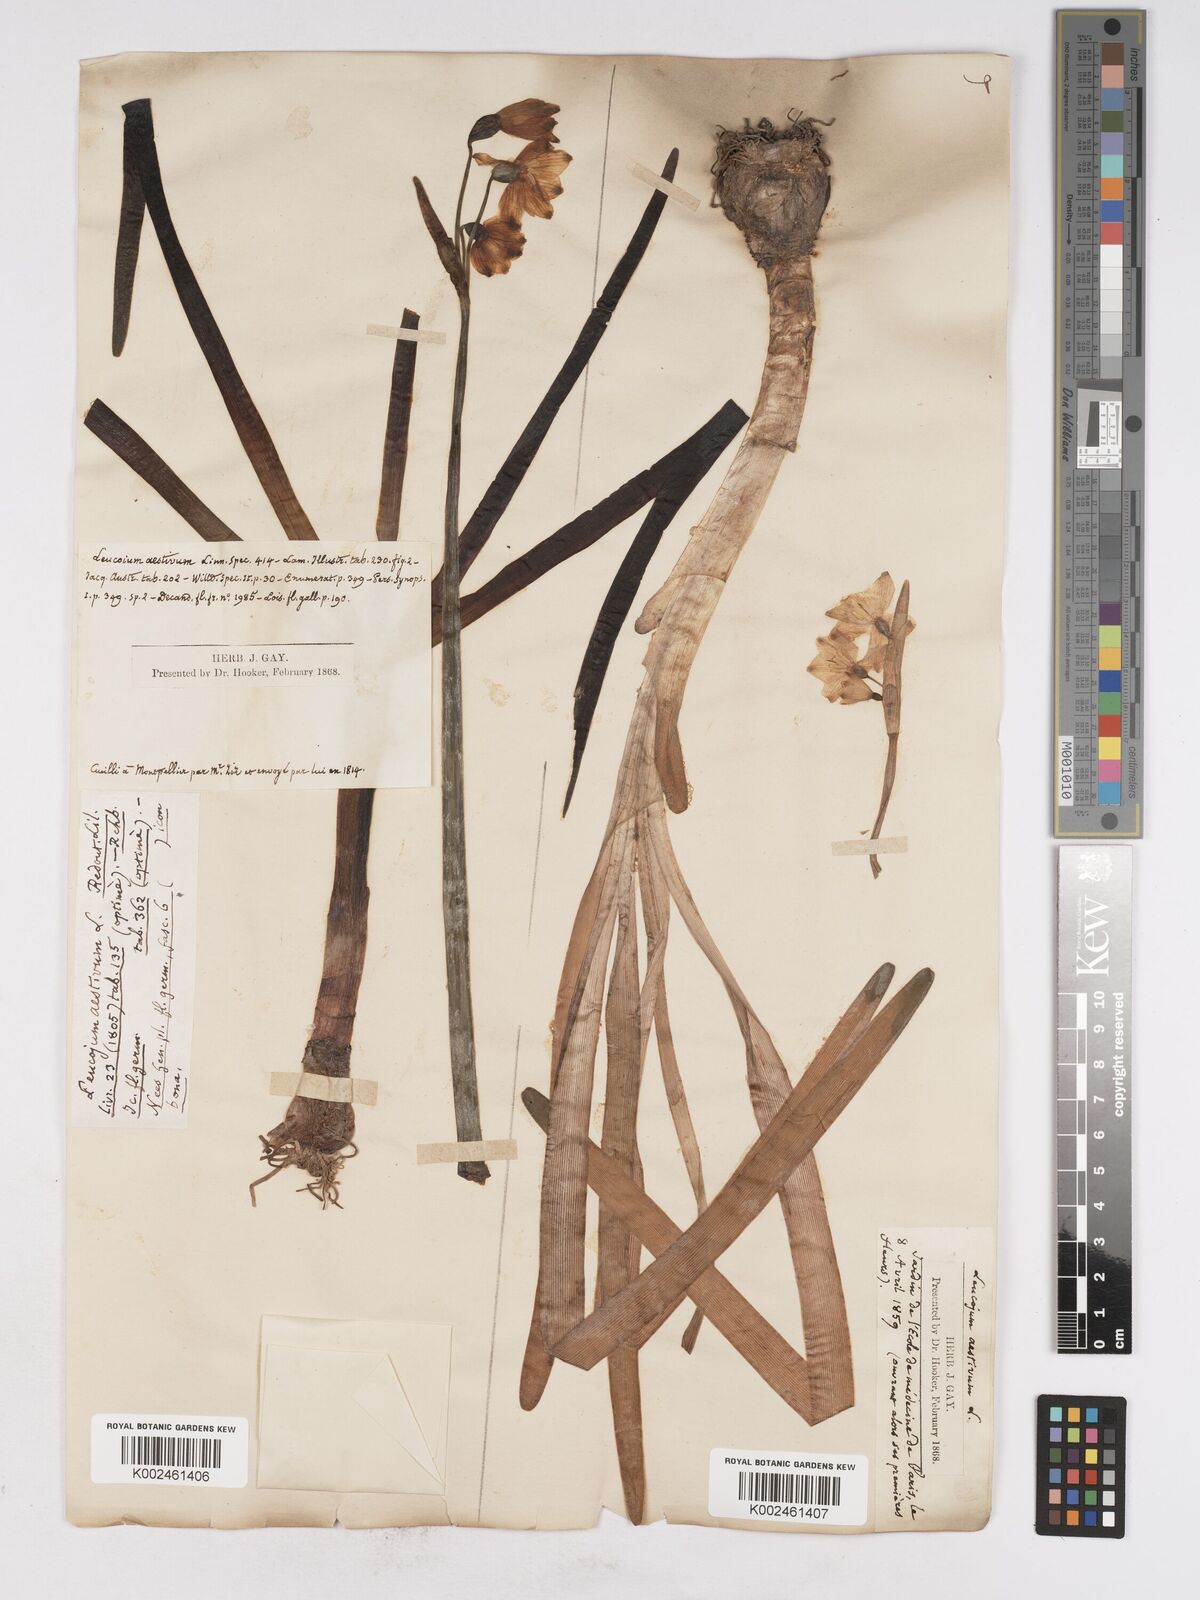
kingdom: Plantae
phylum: Tracheophyta
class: Liliopsida
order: Asparagales
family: Amaryllidaceae
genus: Leucojum
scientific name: Leucojum aestivum
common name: Summer snowflake
